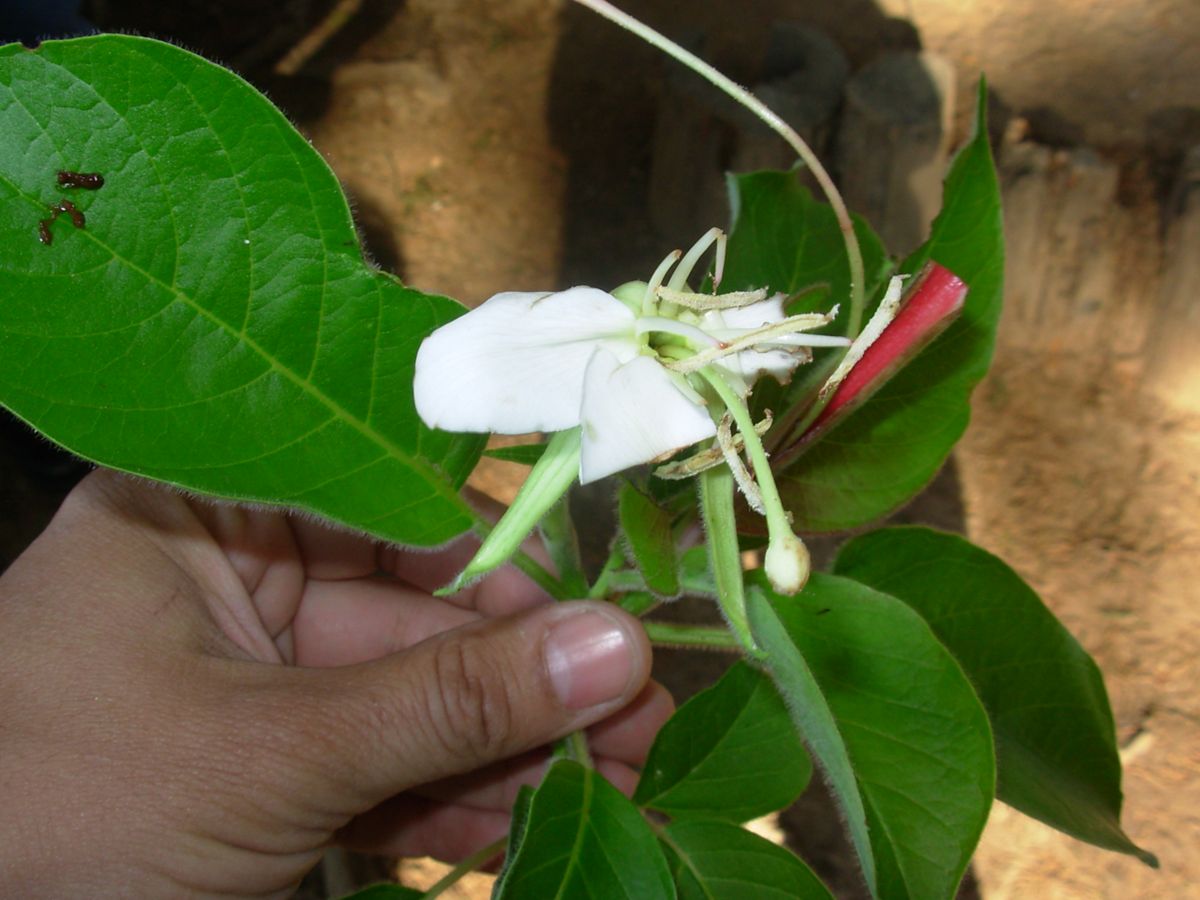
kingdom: Plantae
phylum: Tracheophyta
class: Magnoliopsida
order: Myrtales
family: Onagraceae
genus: Hauya
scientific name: Hauya elegans
